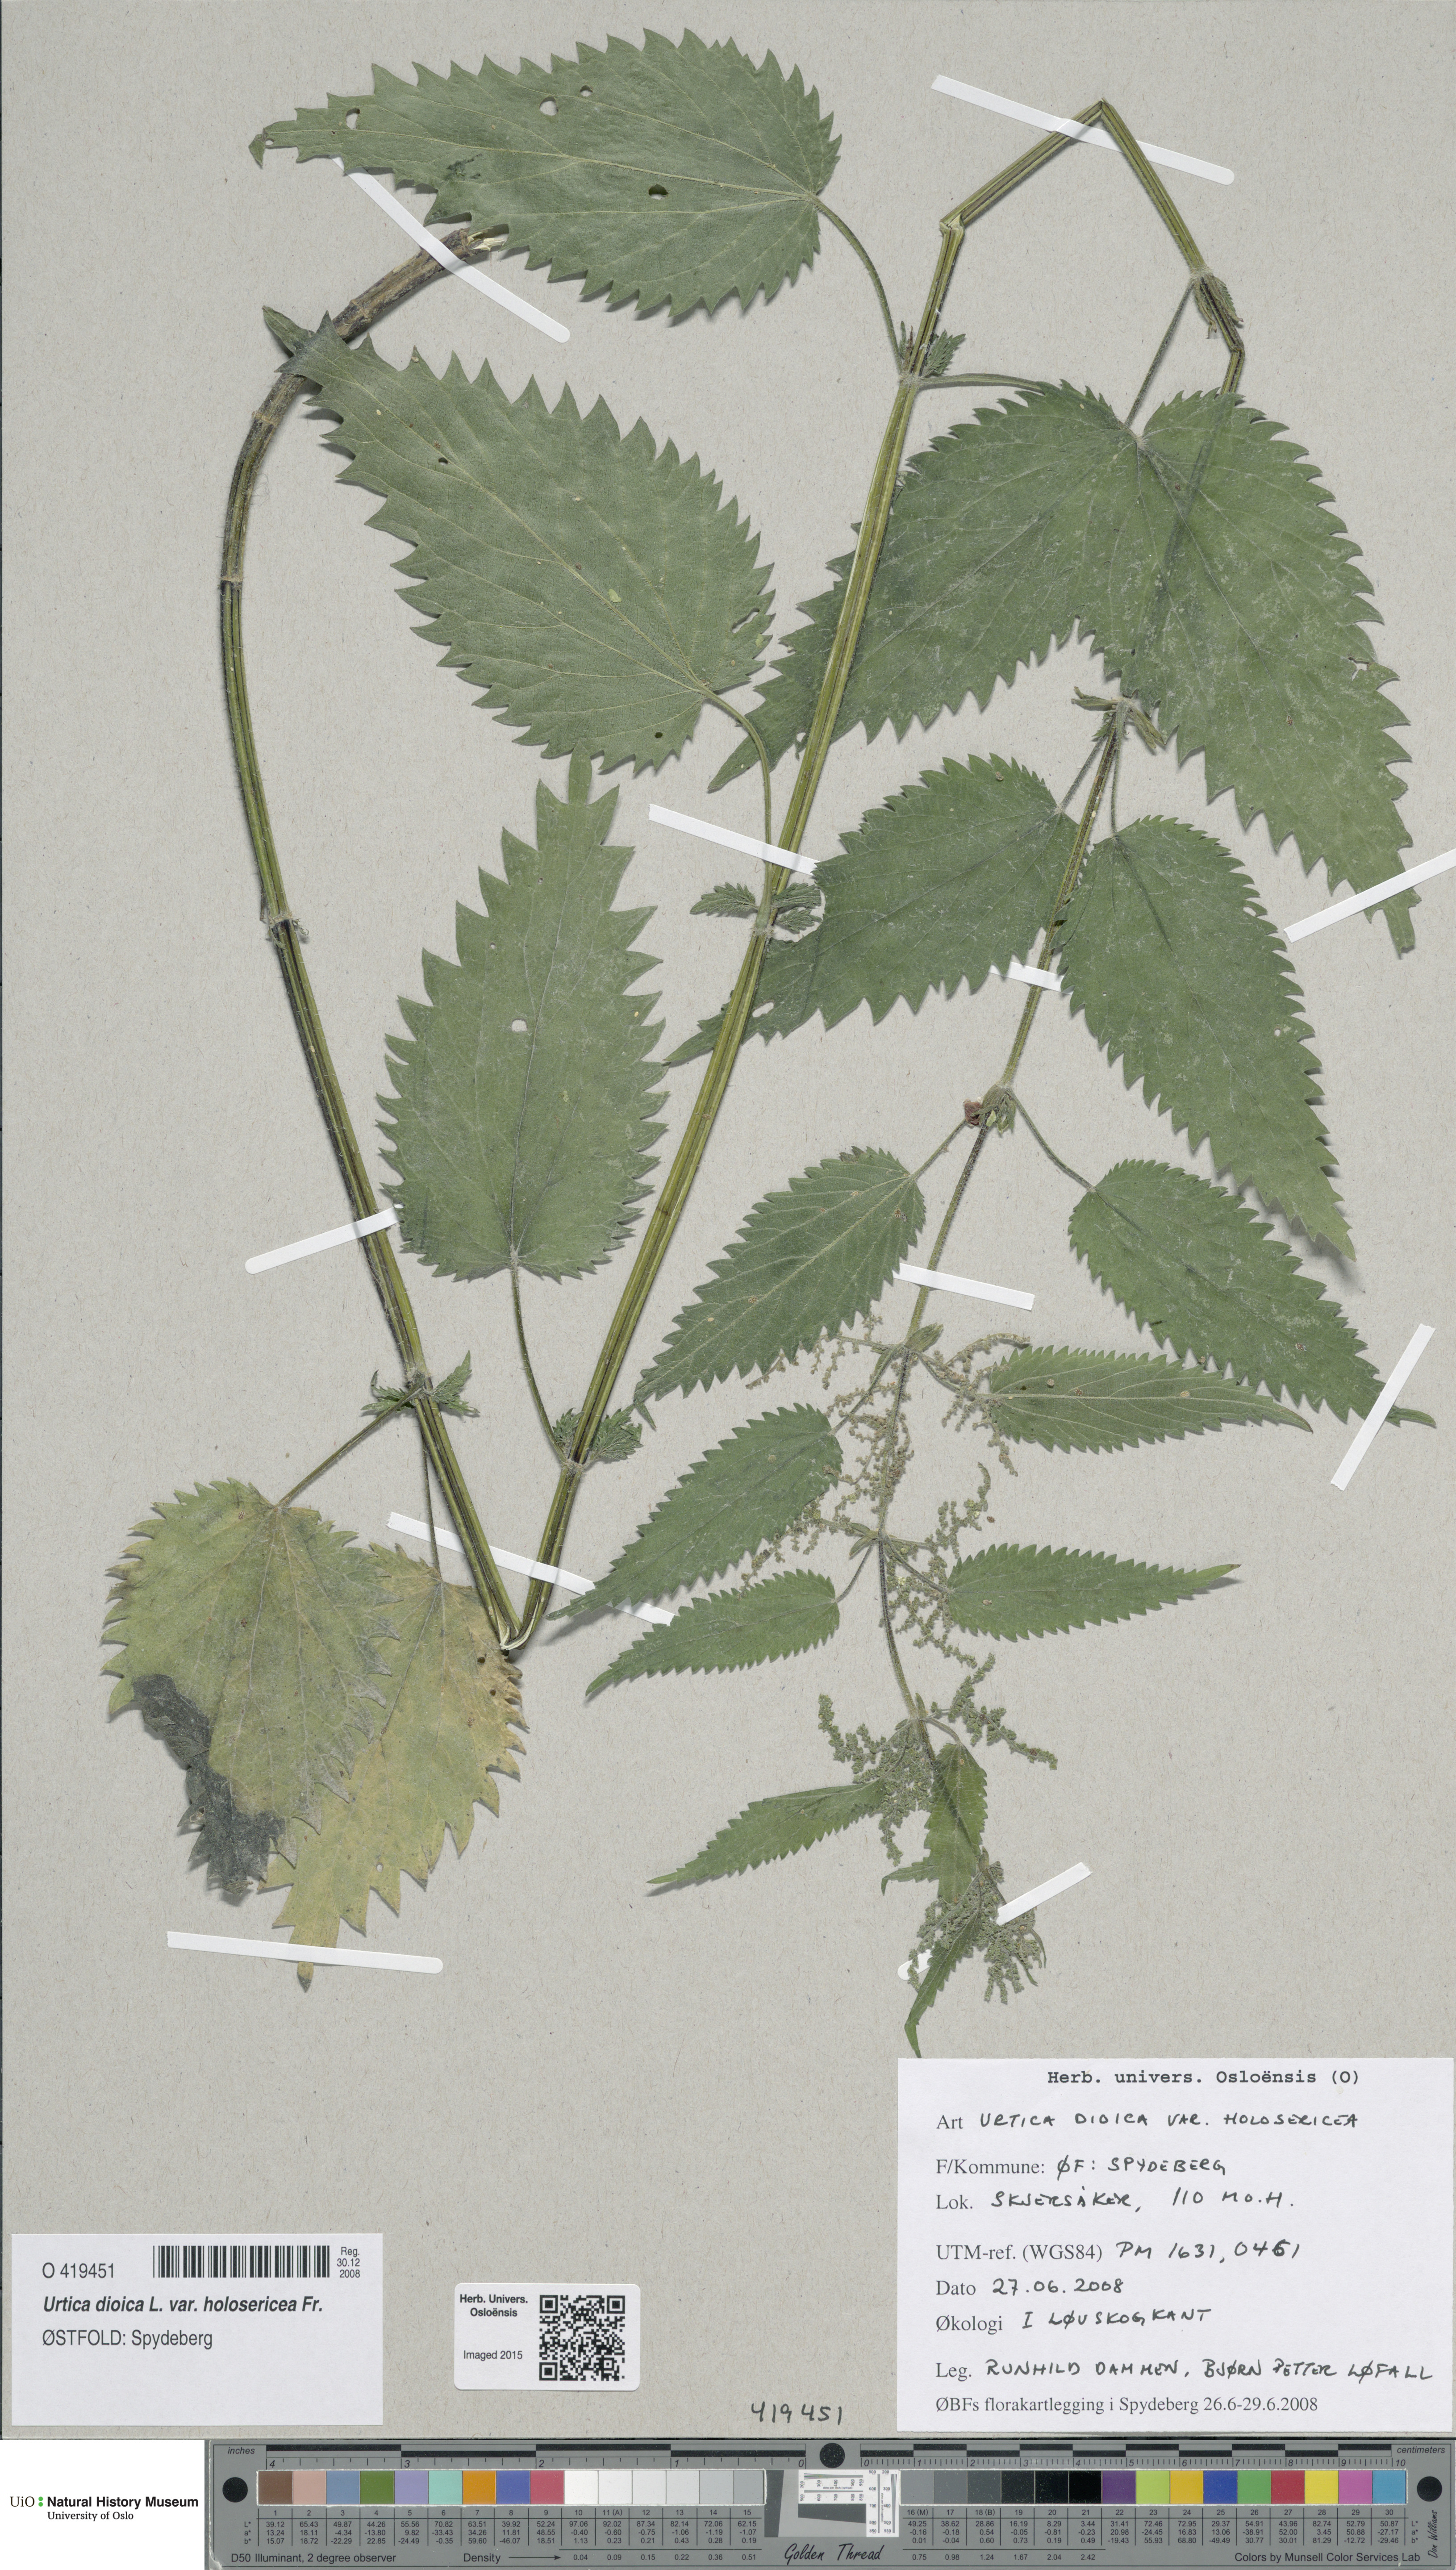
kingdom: Plantae
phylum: Tracheophyta
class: Magnoliopsida
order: Rosales
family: Urticaceae
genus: Urtica
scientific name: Urtica dioica
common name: Common nettle
